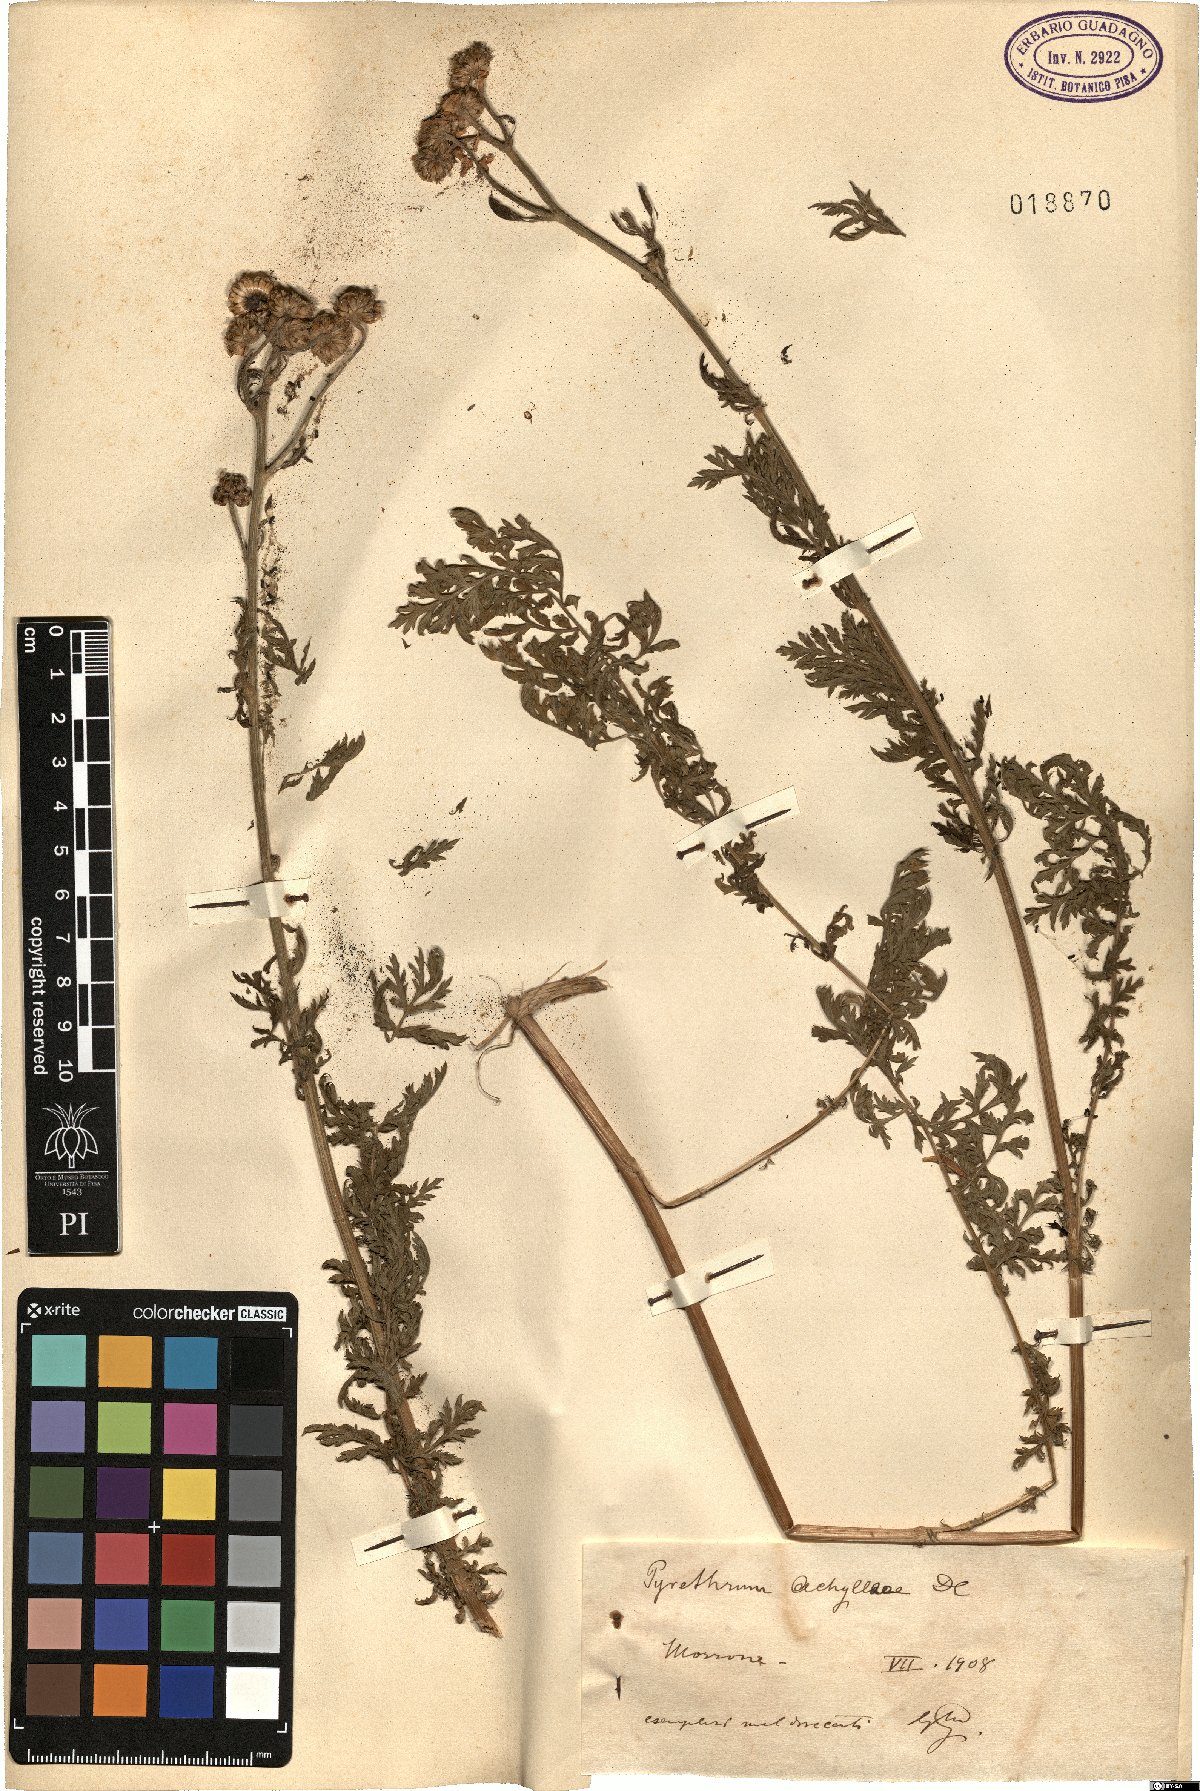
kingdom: Plantae
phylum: Tracheophyta
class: Magnoliopsida
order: Asterales
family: Asteraceae
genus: Tanacetum
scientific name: Tanacetum corymbosum
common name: Scentless feverfew
